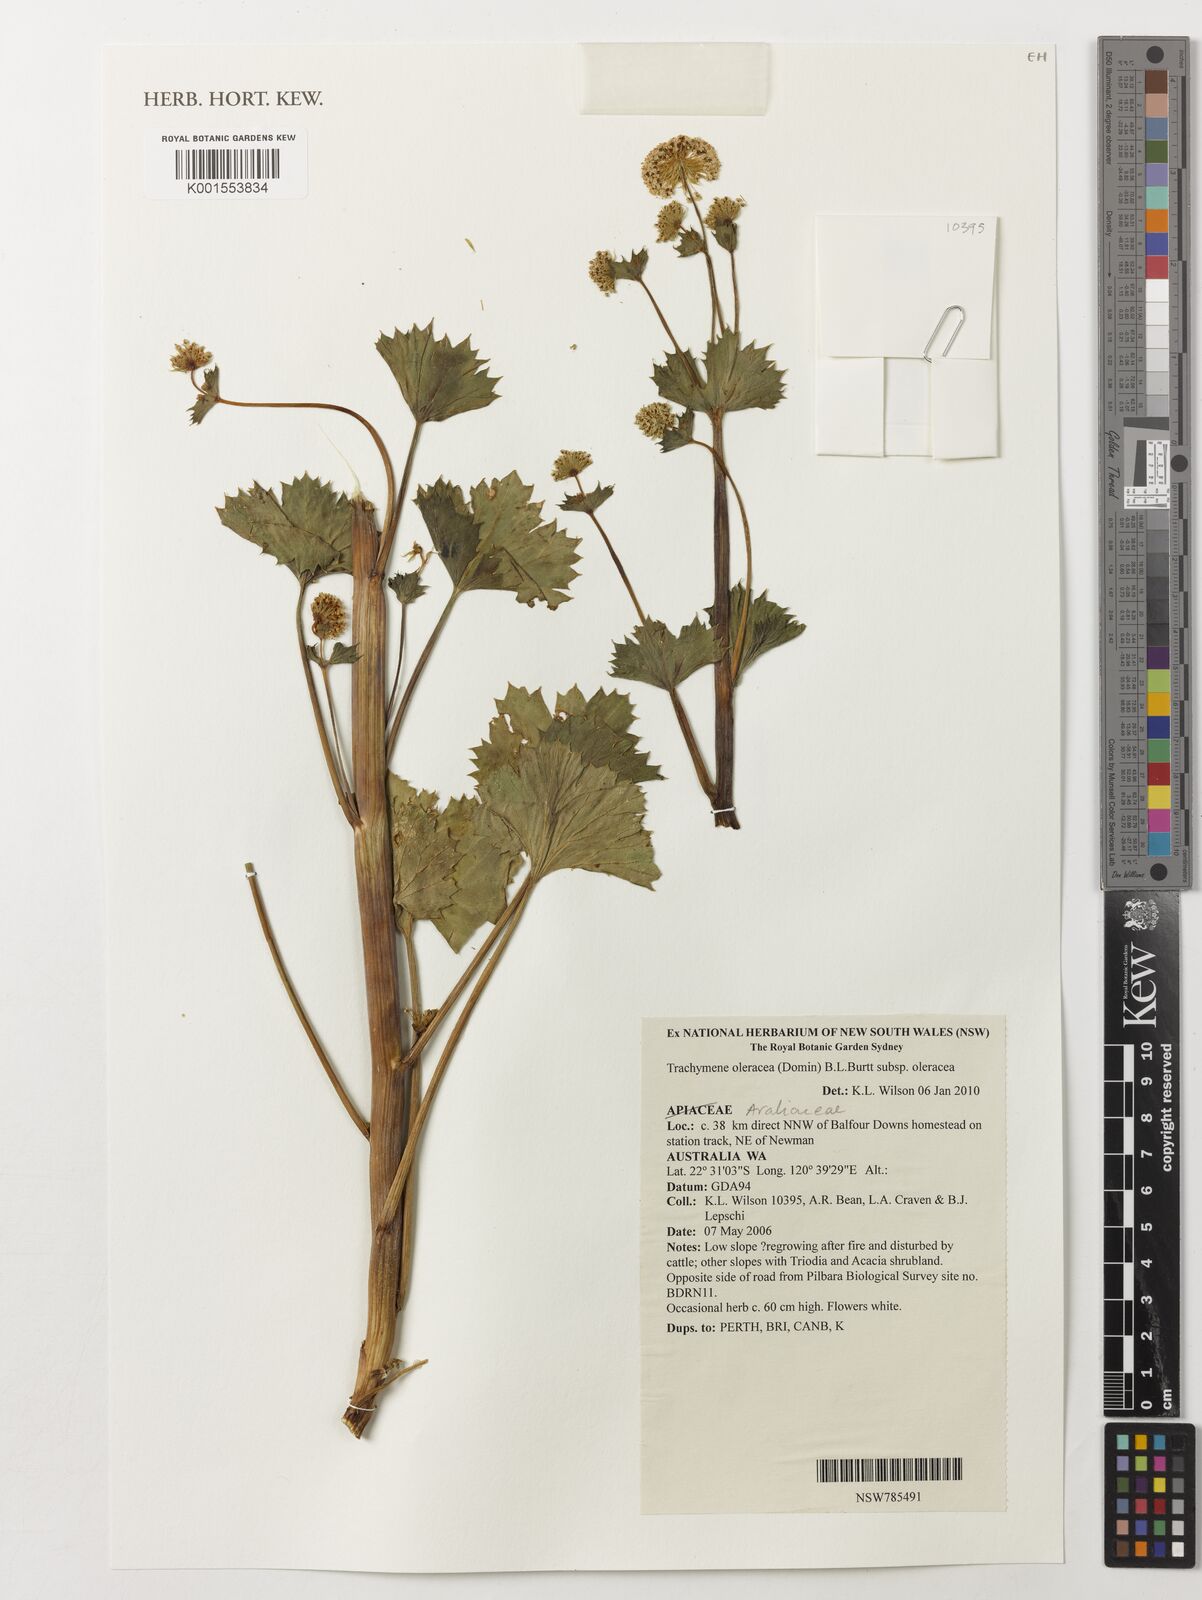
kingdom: Plantae
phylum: Tracheophyta
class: Magnoliopsida
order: Apiales
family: Araliaceae
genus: Trachymene
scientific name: Trachymene oleracea
